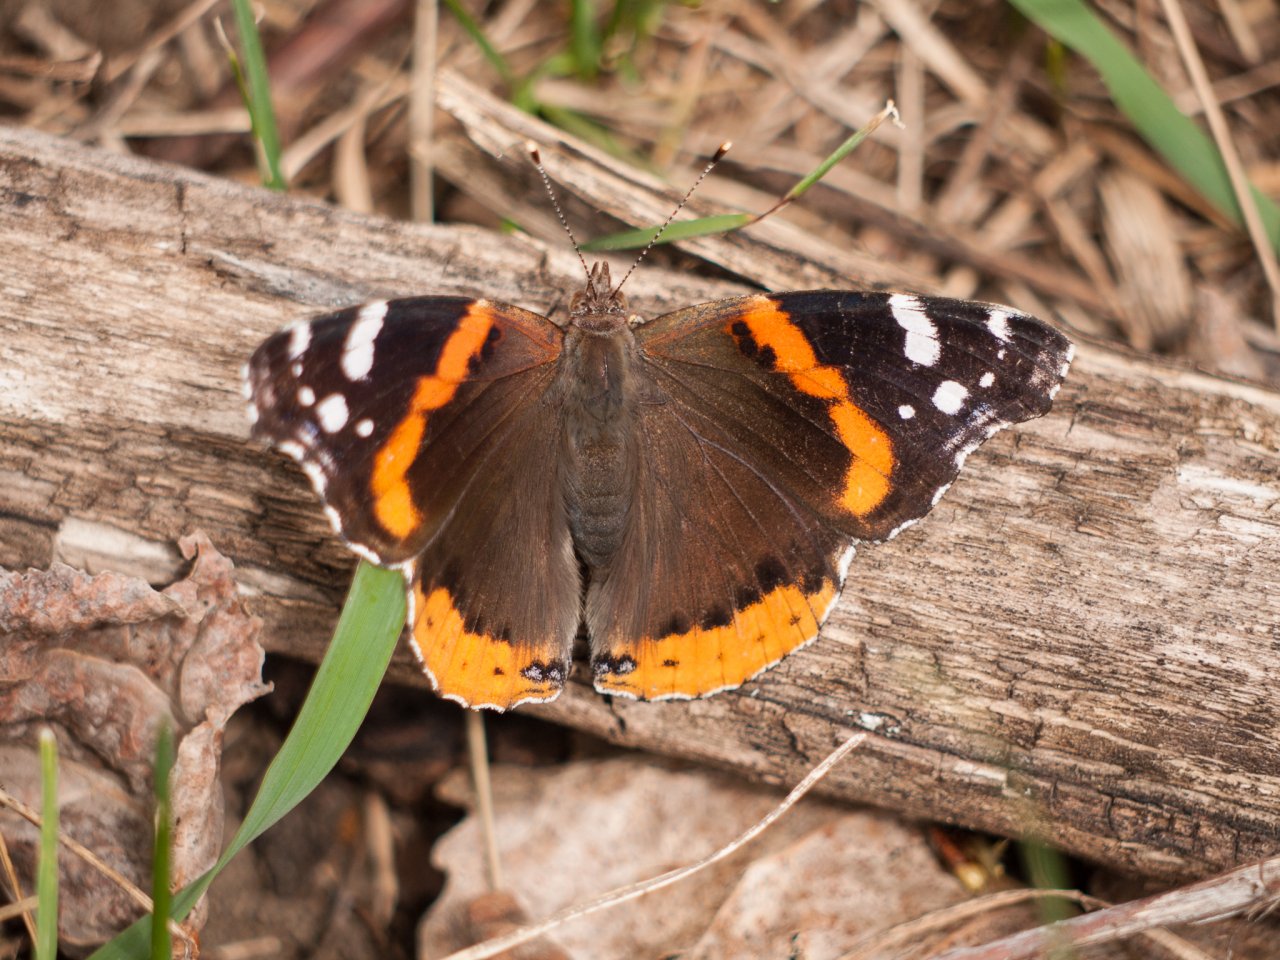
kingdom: Animalia
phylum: Arthropoda
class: Insecta
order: Lepidoptera
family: Nymphalidae
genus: Vanessa
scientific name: Vanessa atalanta
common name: Red Admiral
